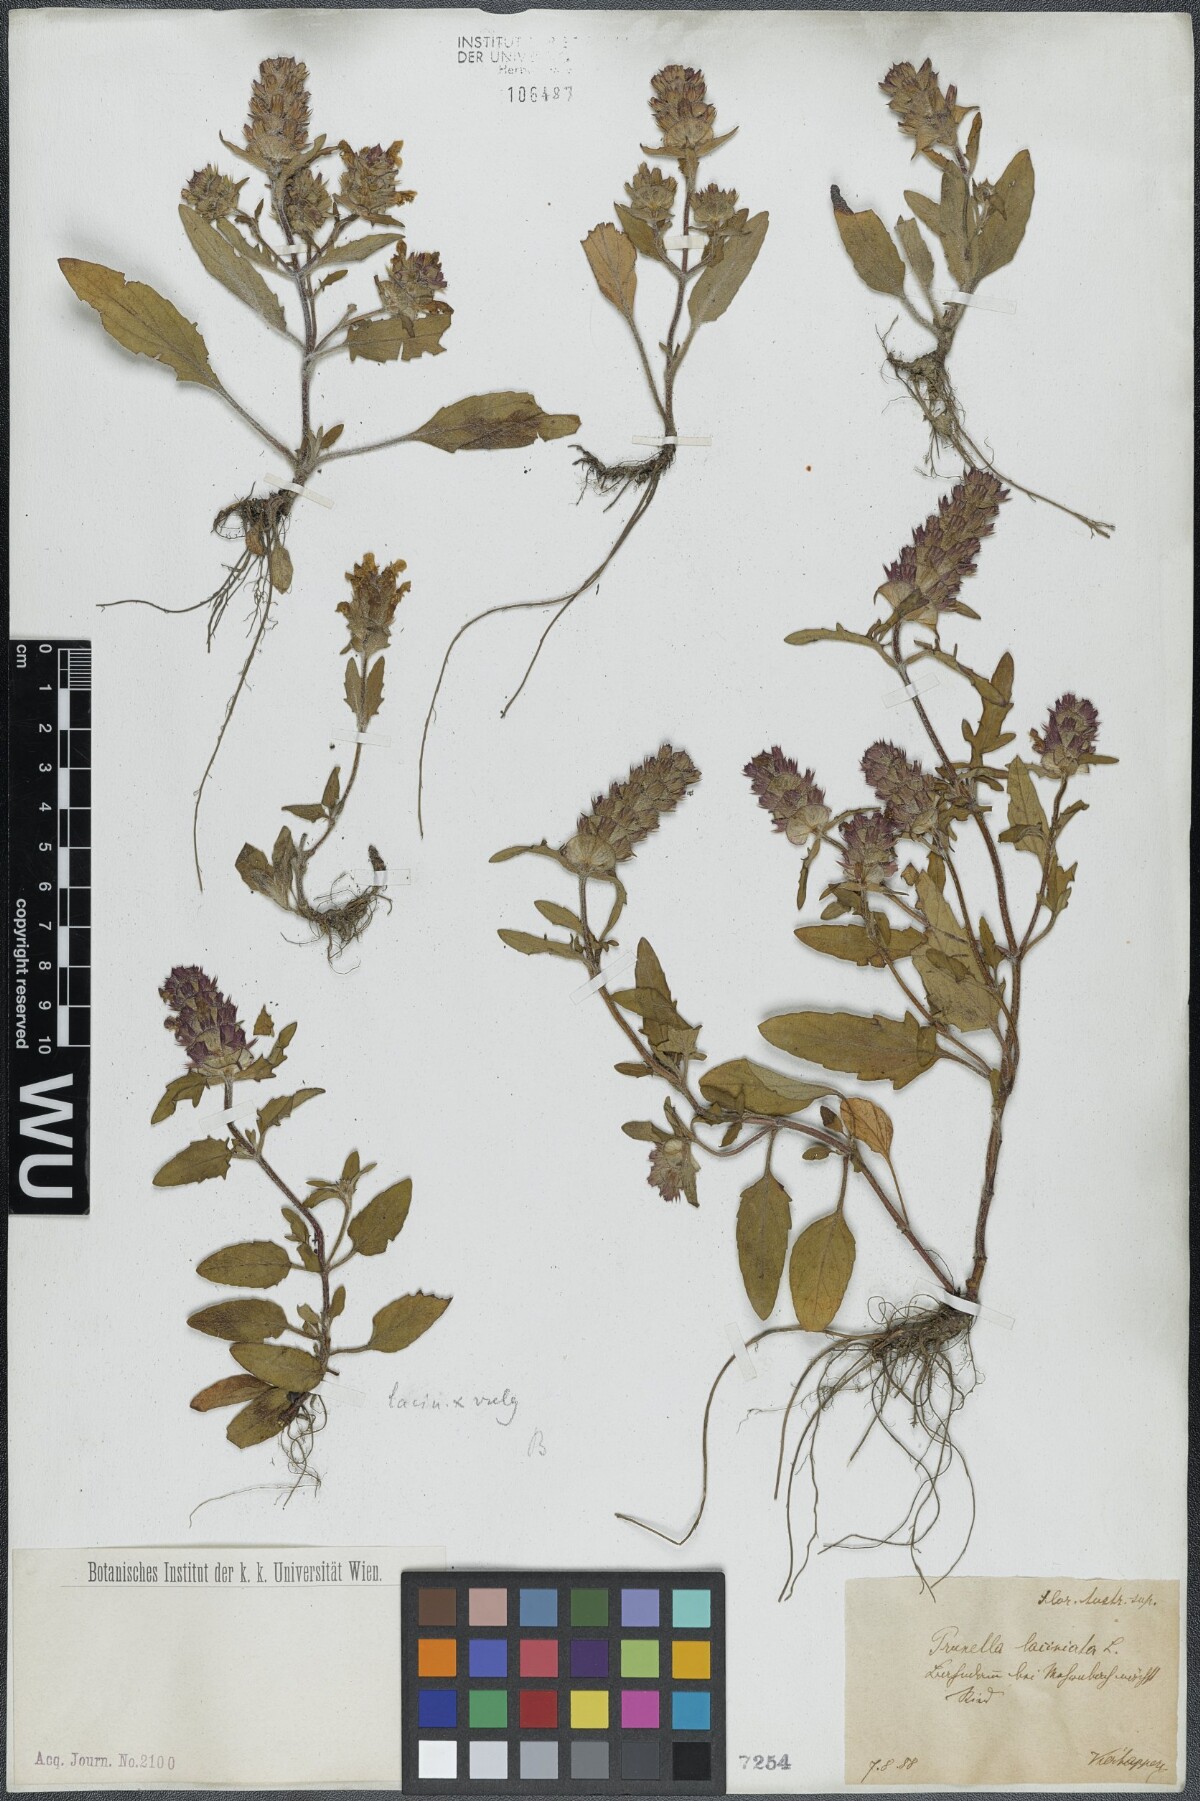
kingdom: Plantae
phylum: Tracheophyta
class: Magnoliopsida
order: Lamiales
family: Lamiaceae
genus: Prunella
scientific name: Prunella laciniata
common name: Cut-leaved selfheal
